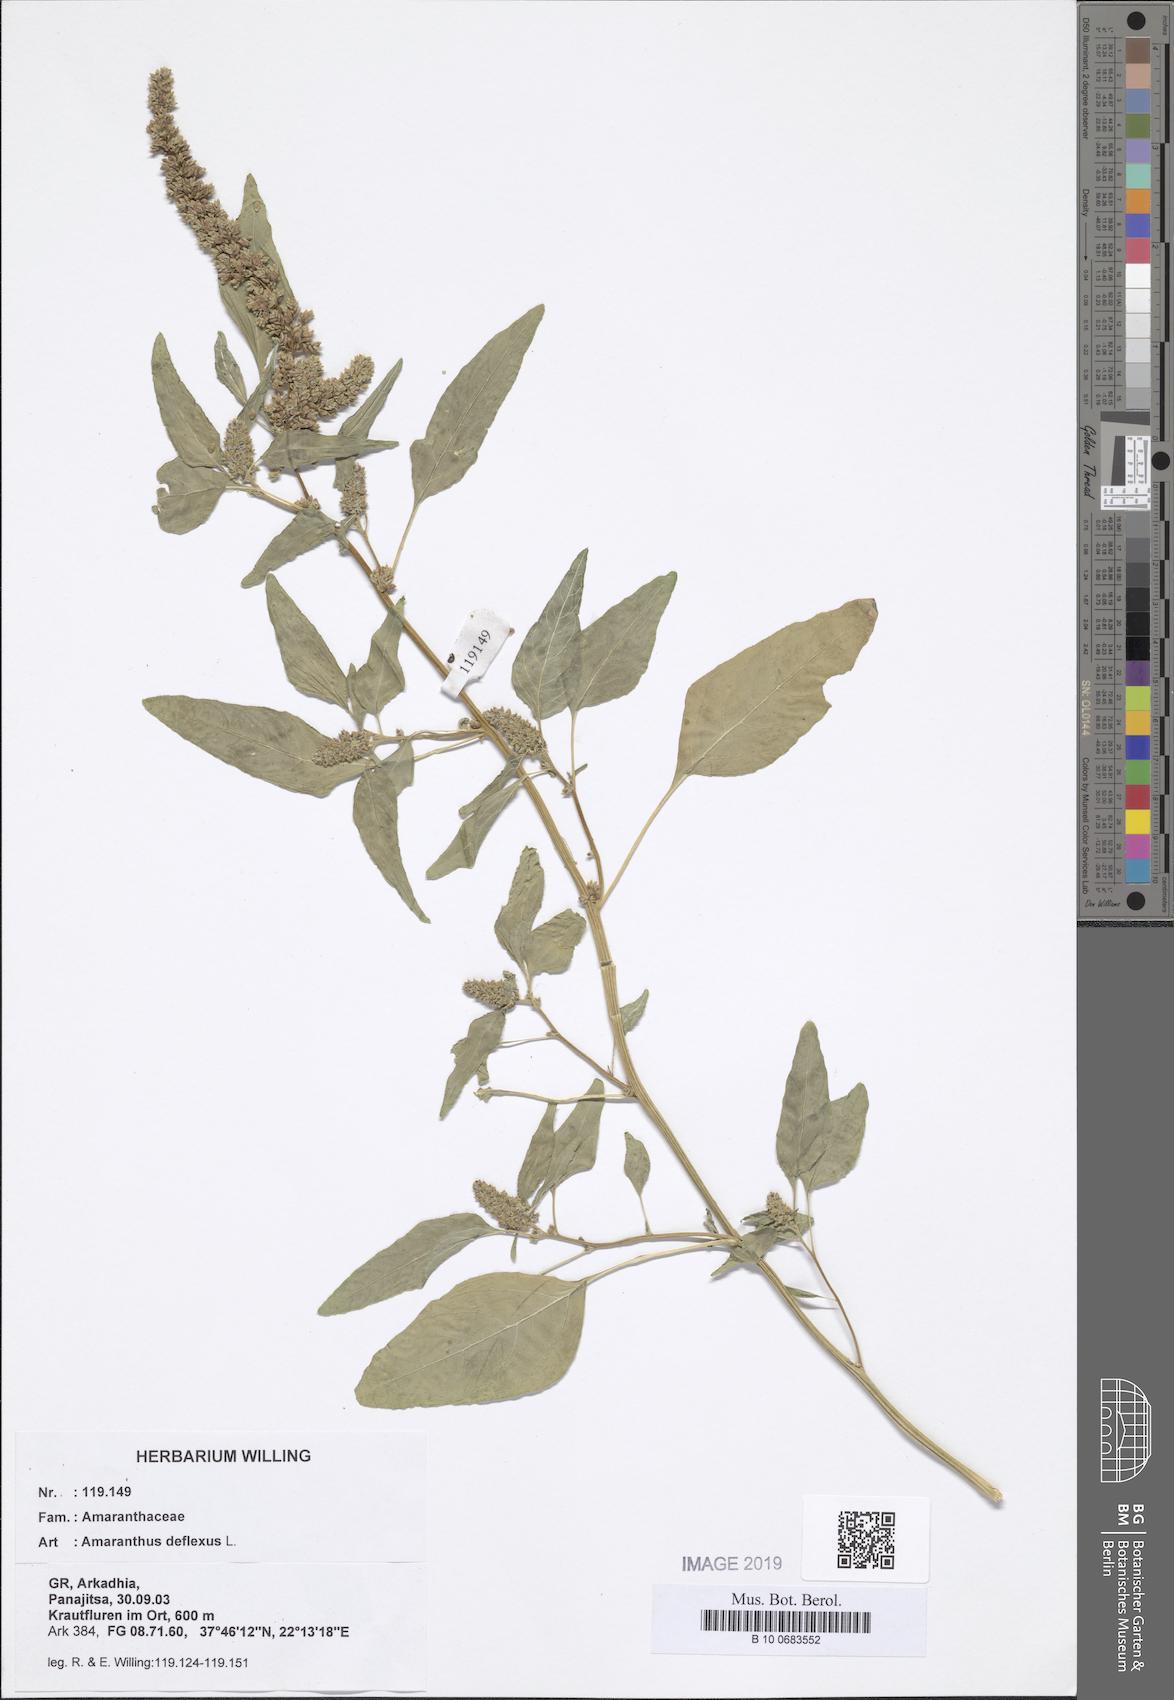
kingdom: Plantae
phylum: Tracheophyta
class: Magnoliopsida
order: Caryophyllales
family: Amaranthaceae
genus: Amaranthus
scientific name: Amaranthus deflexus
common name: Perennial pigweed
